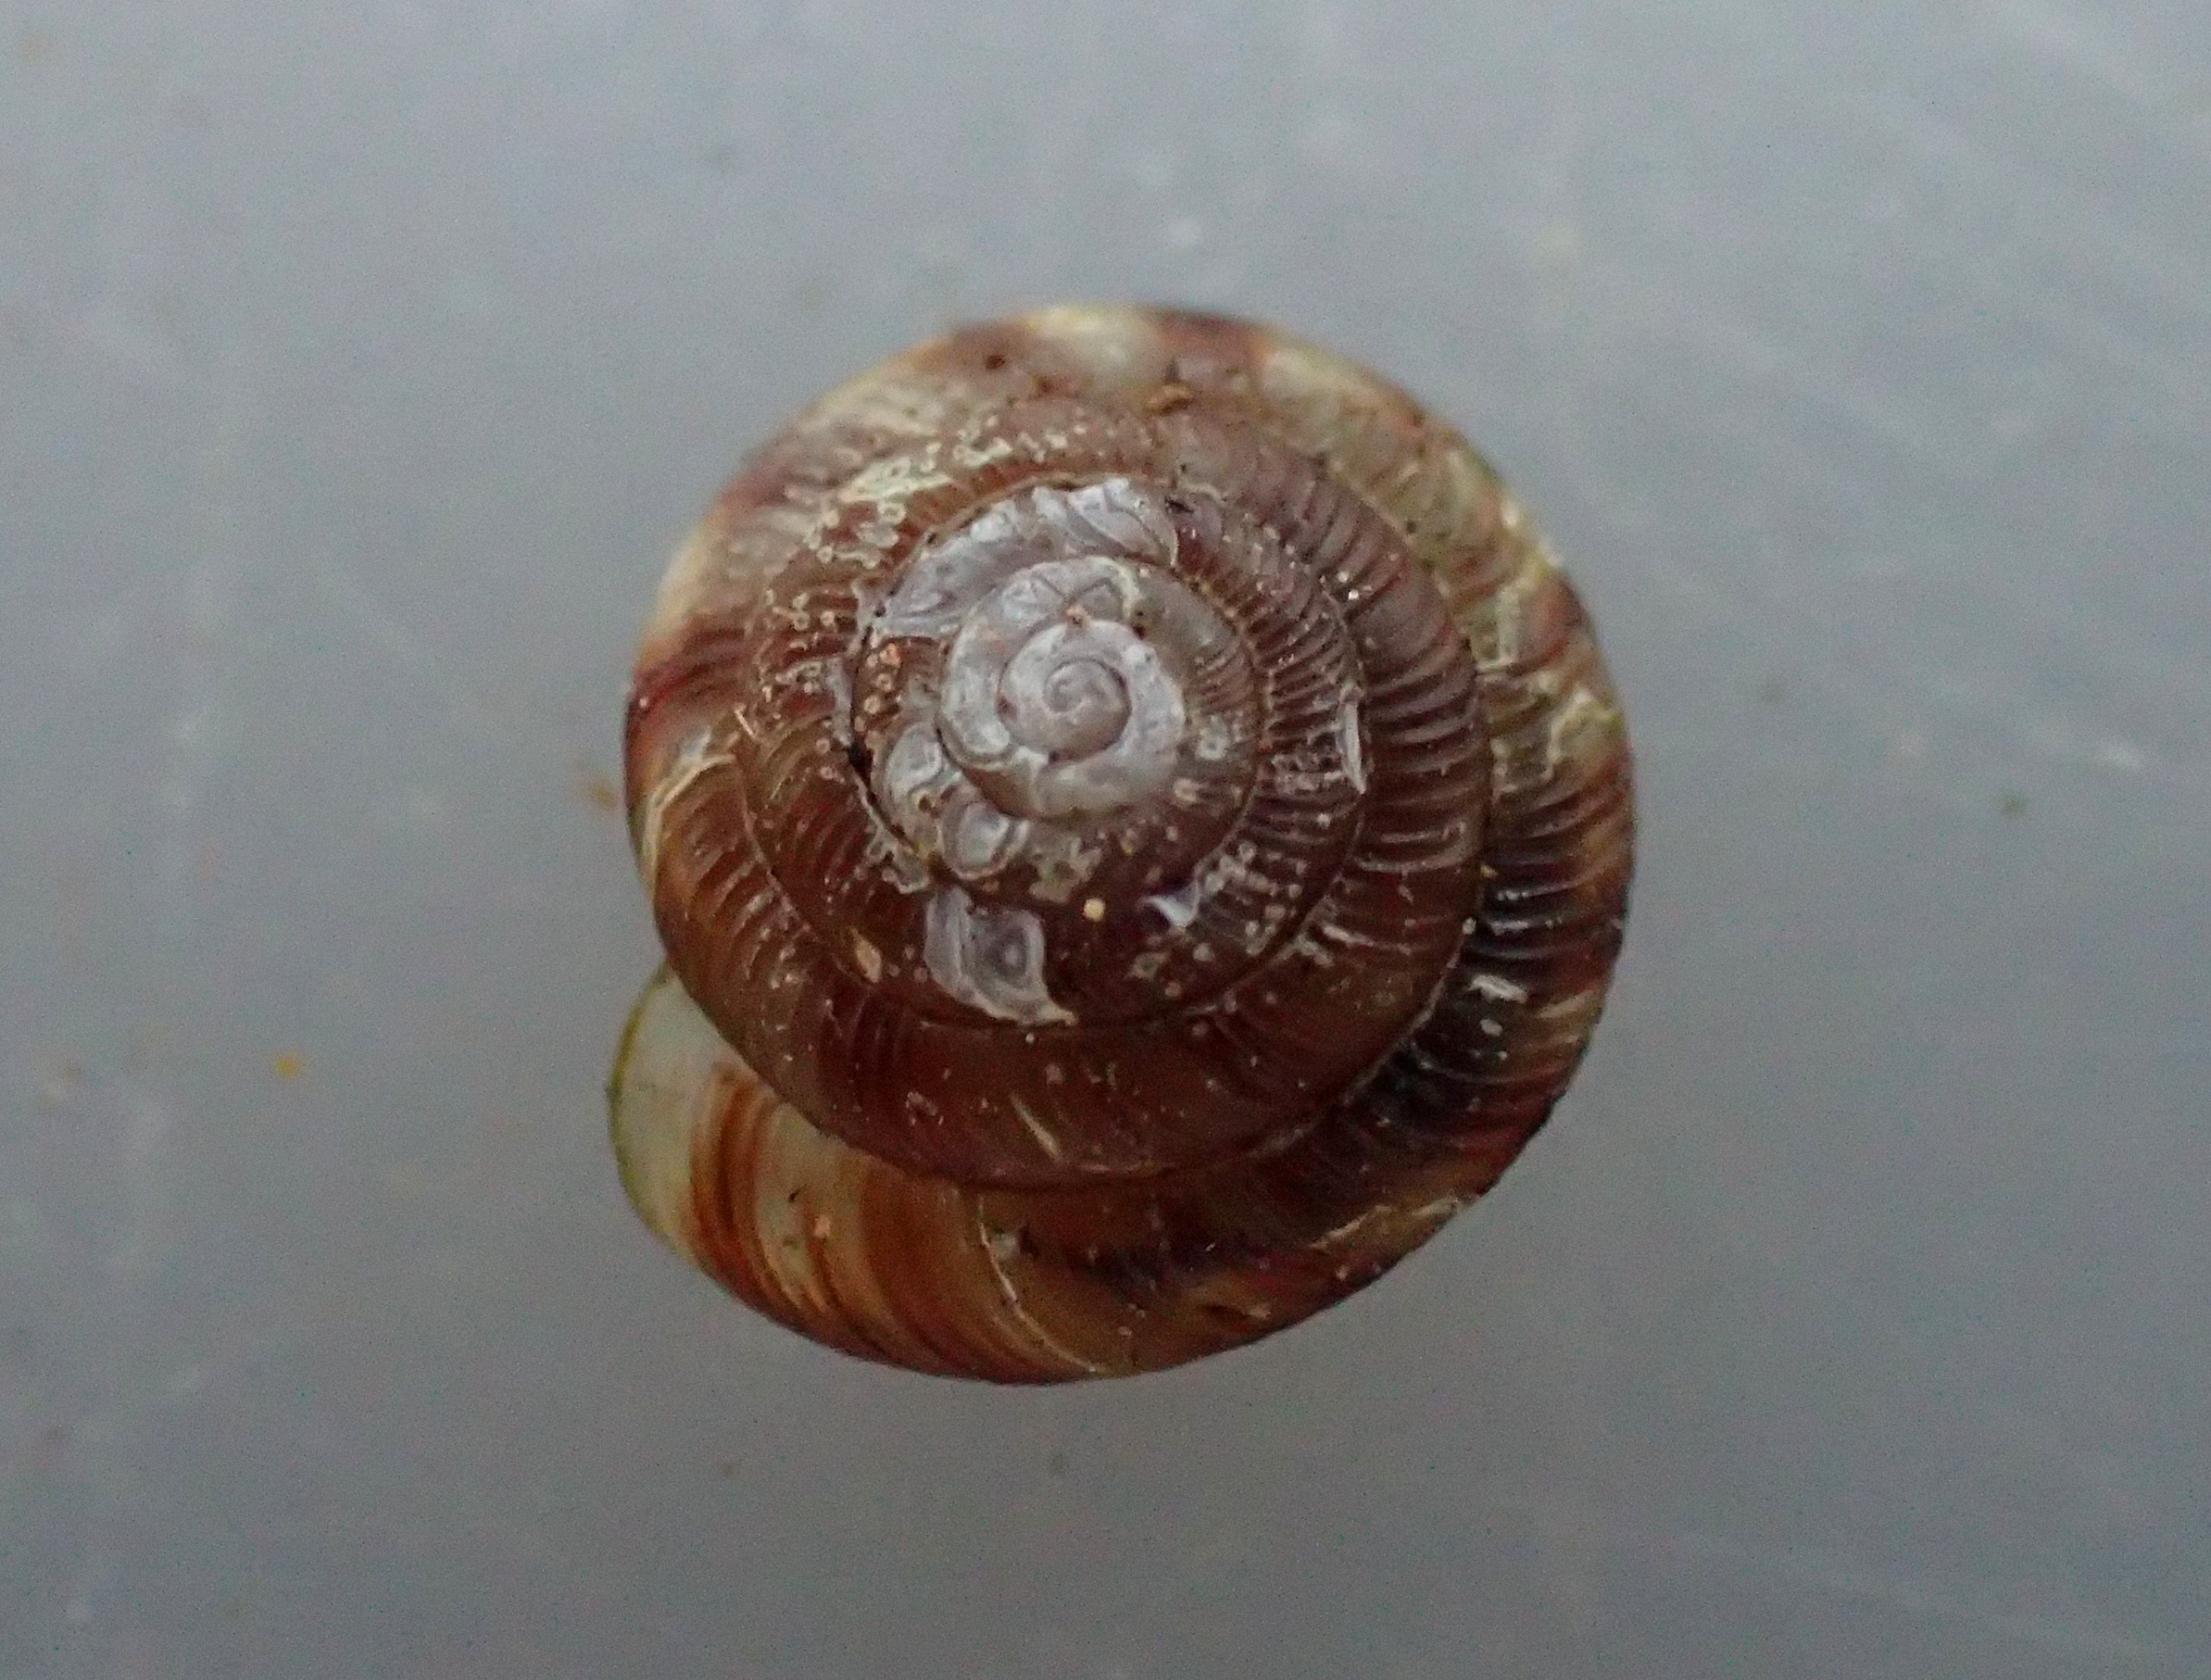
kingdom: Animalia
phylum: Mollusca
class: Gastropoda
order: Stylommatophora
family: Discidae
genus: Discus
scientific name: Discus rotundatus
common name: Knapsnegl
